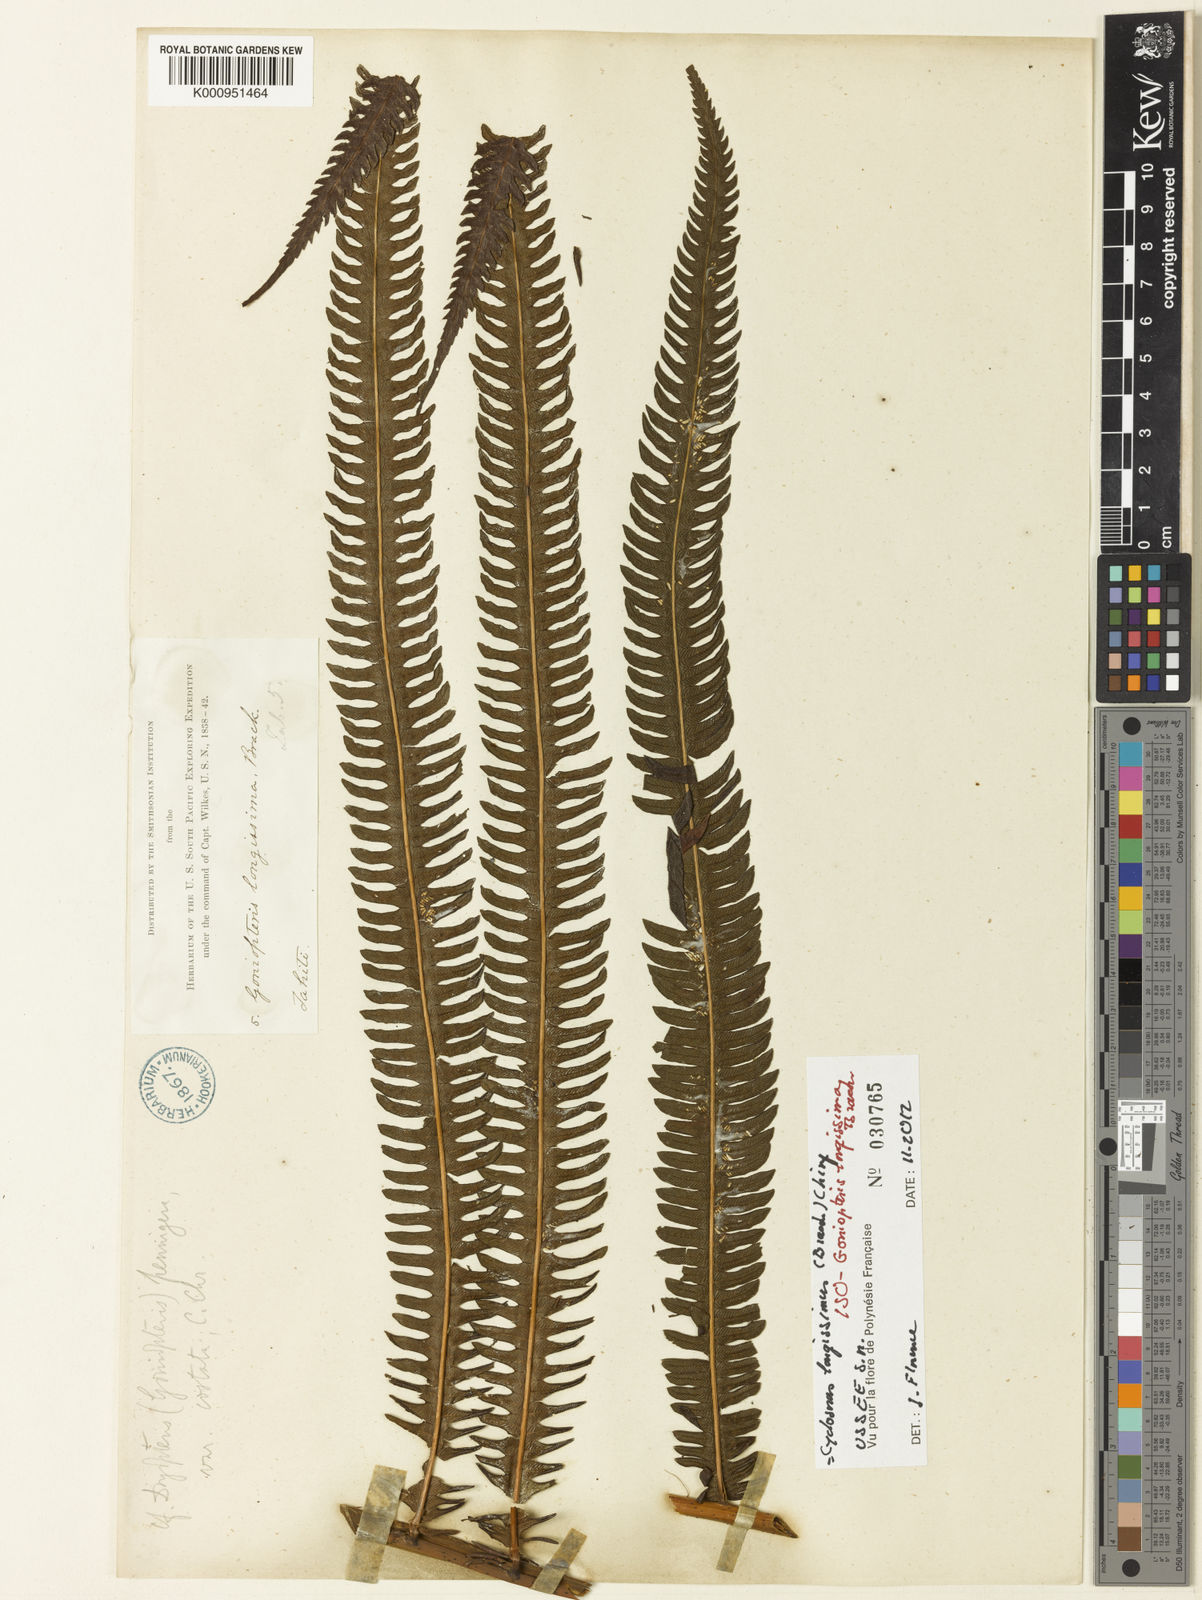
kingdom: Plantae
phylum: Tracheophyta
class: Polypodiopsida
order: Polypodiales
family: Thelypteridaceae
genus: Chingia
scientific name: Chingia longissima
